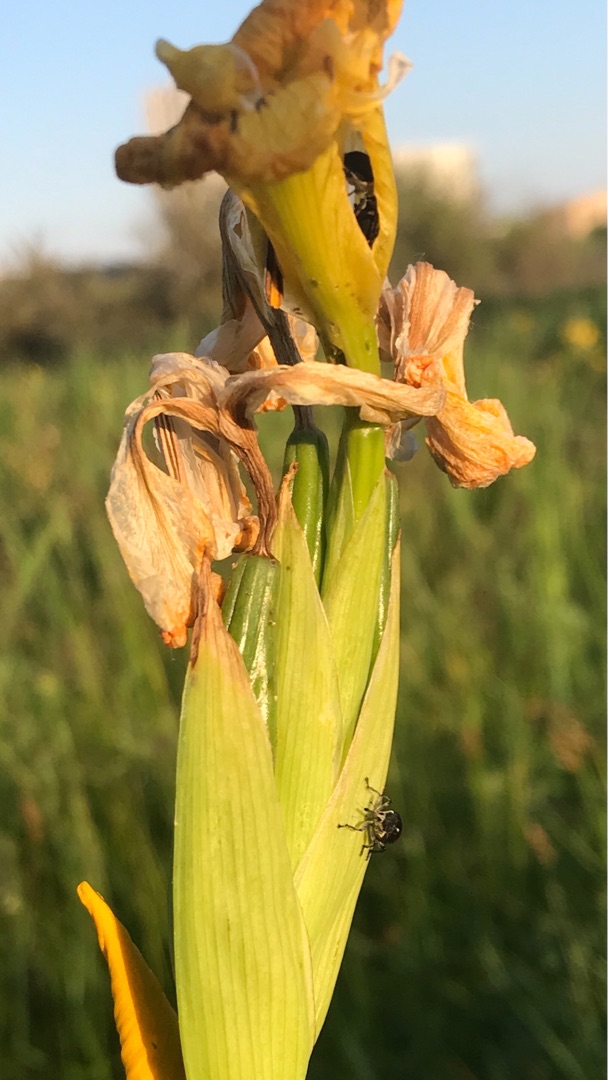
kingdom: Animalia
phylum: Arthropoda
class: Insecta
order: Coleoptera
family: Curculionidae
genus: Mononychus
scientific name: Mononychus punctumalbum
